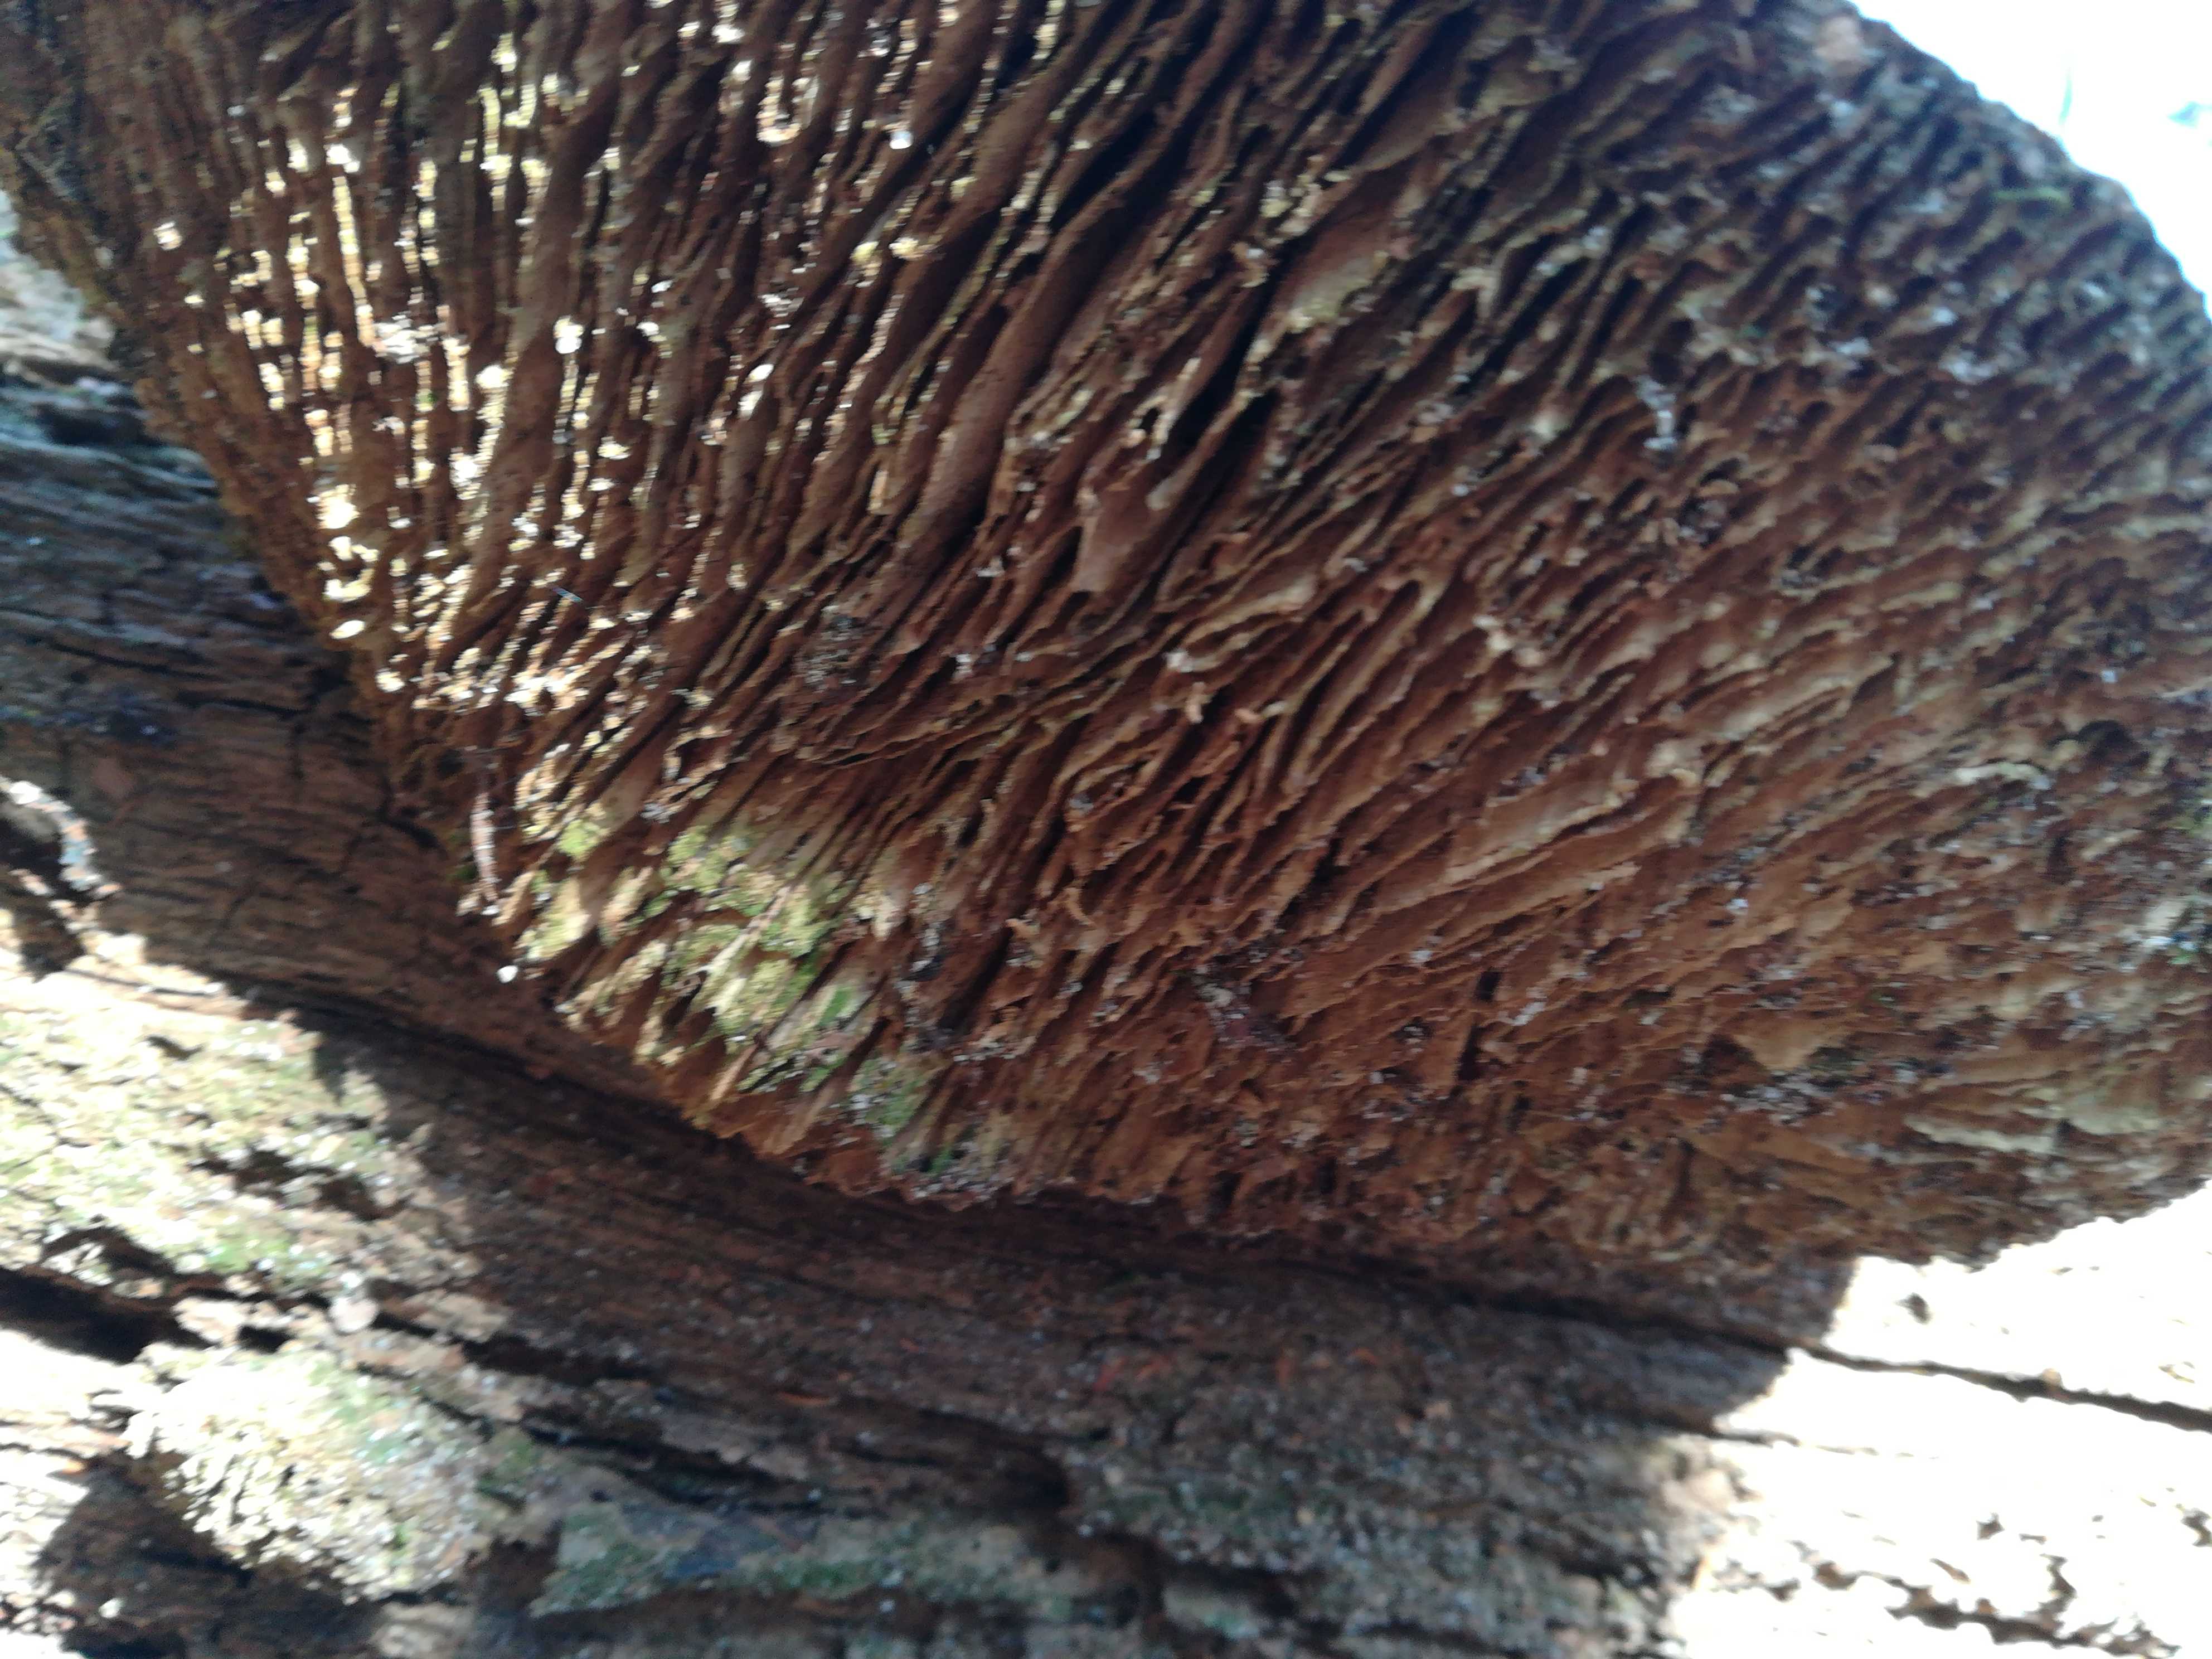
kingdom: Fungi
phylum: Basidiomycota
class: Agaricomycetes
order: Polyporales
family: Fomitopsidaceae
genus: Daedalea
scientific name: Daedalea quercina
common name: ege-labyrintsvamp
